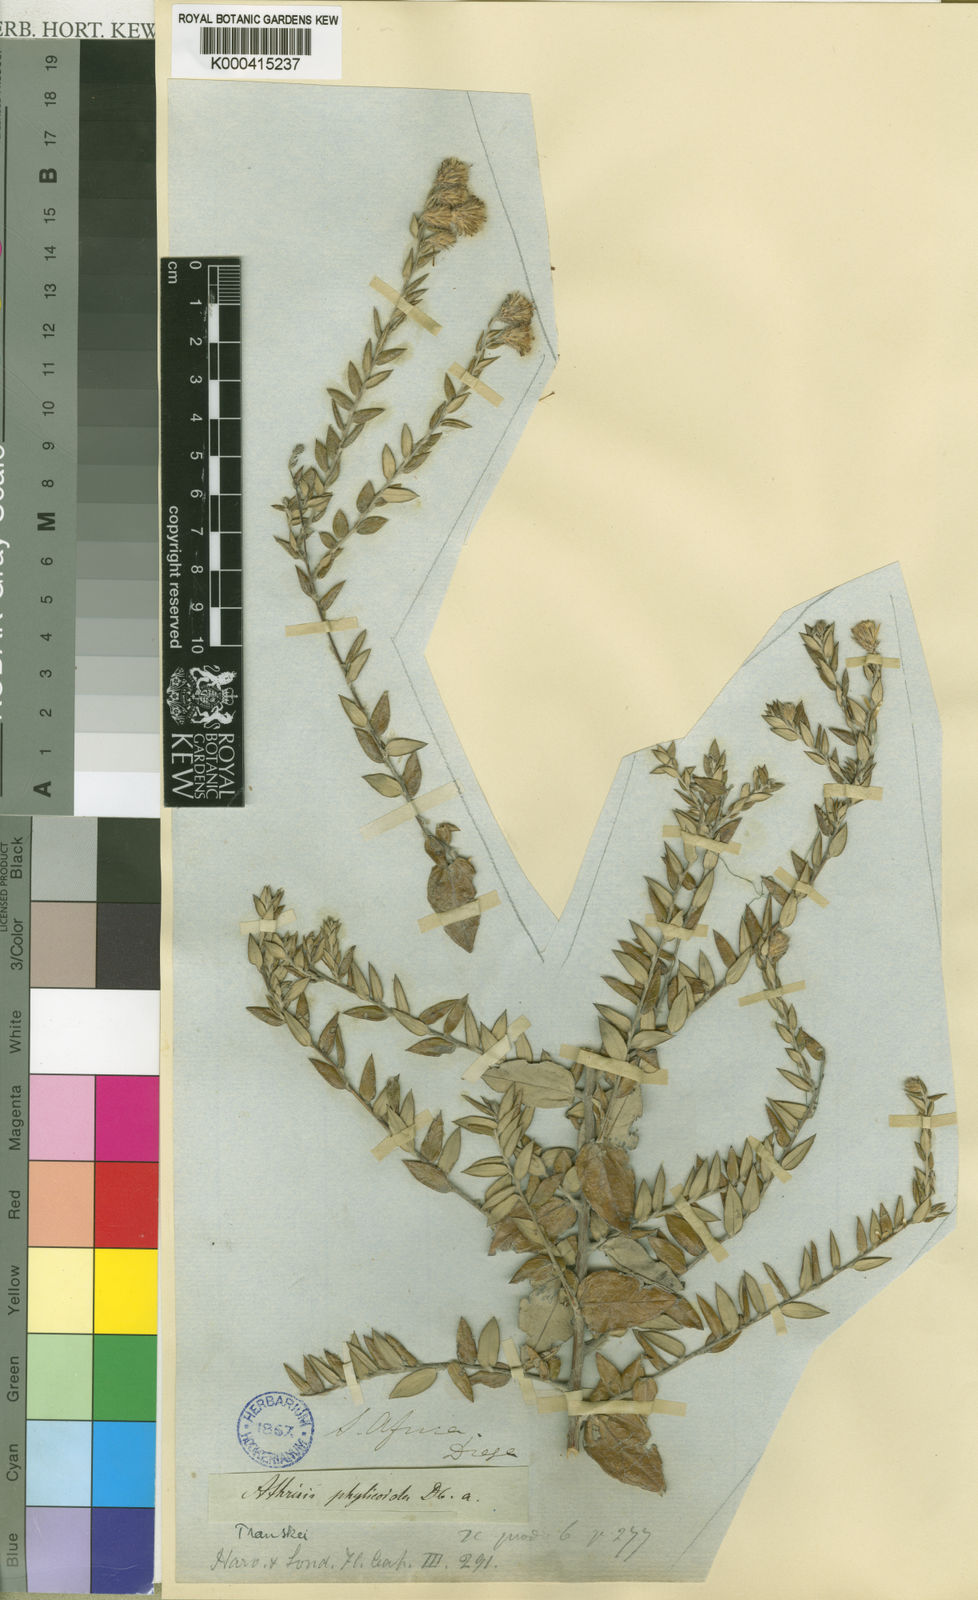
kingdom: Plantae
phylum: Tracheophyta
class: Magnoliopsida
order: Asterales
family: Asteraceae
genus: Athrixia
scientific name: Athrixia phylicoides
